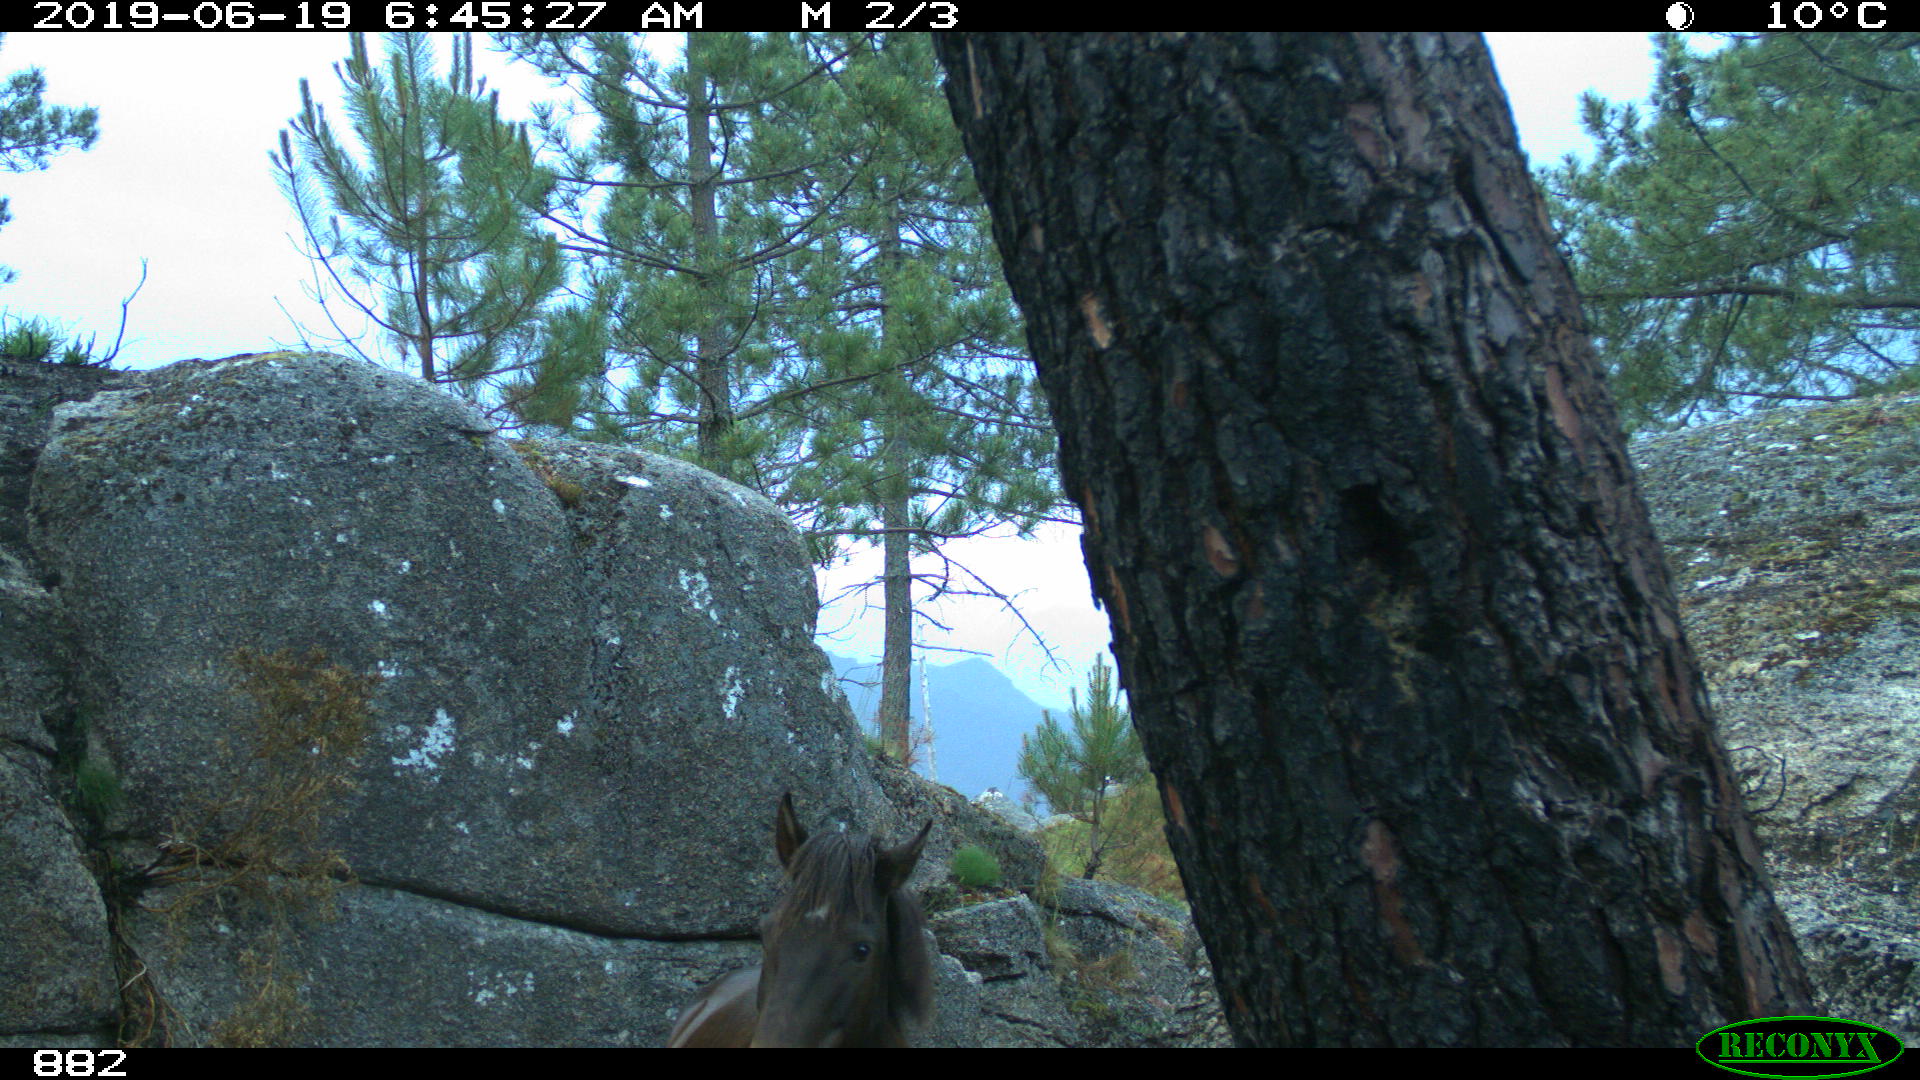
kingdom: Animalia
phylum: Chordata
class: Mammalia
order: Perissodactyla
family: Equidae
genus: Equus
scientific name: Equus caballus
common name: Horse
